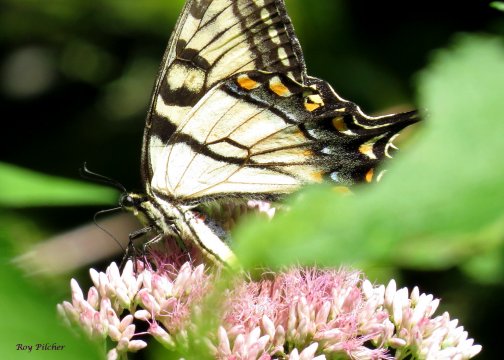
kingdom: Animalia
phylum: Arthropoda
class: Insecta
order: Lepidoptera
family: Papilionidae
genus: Pterourus
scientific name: Pterourus
